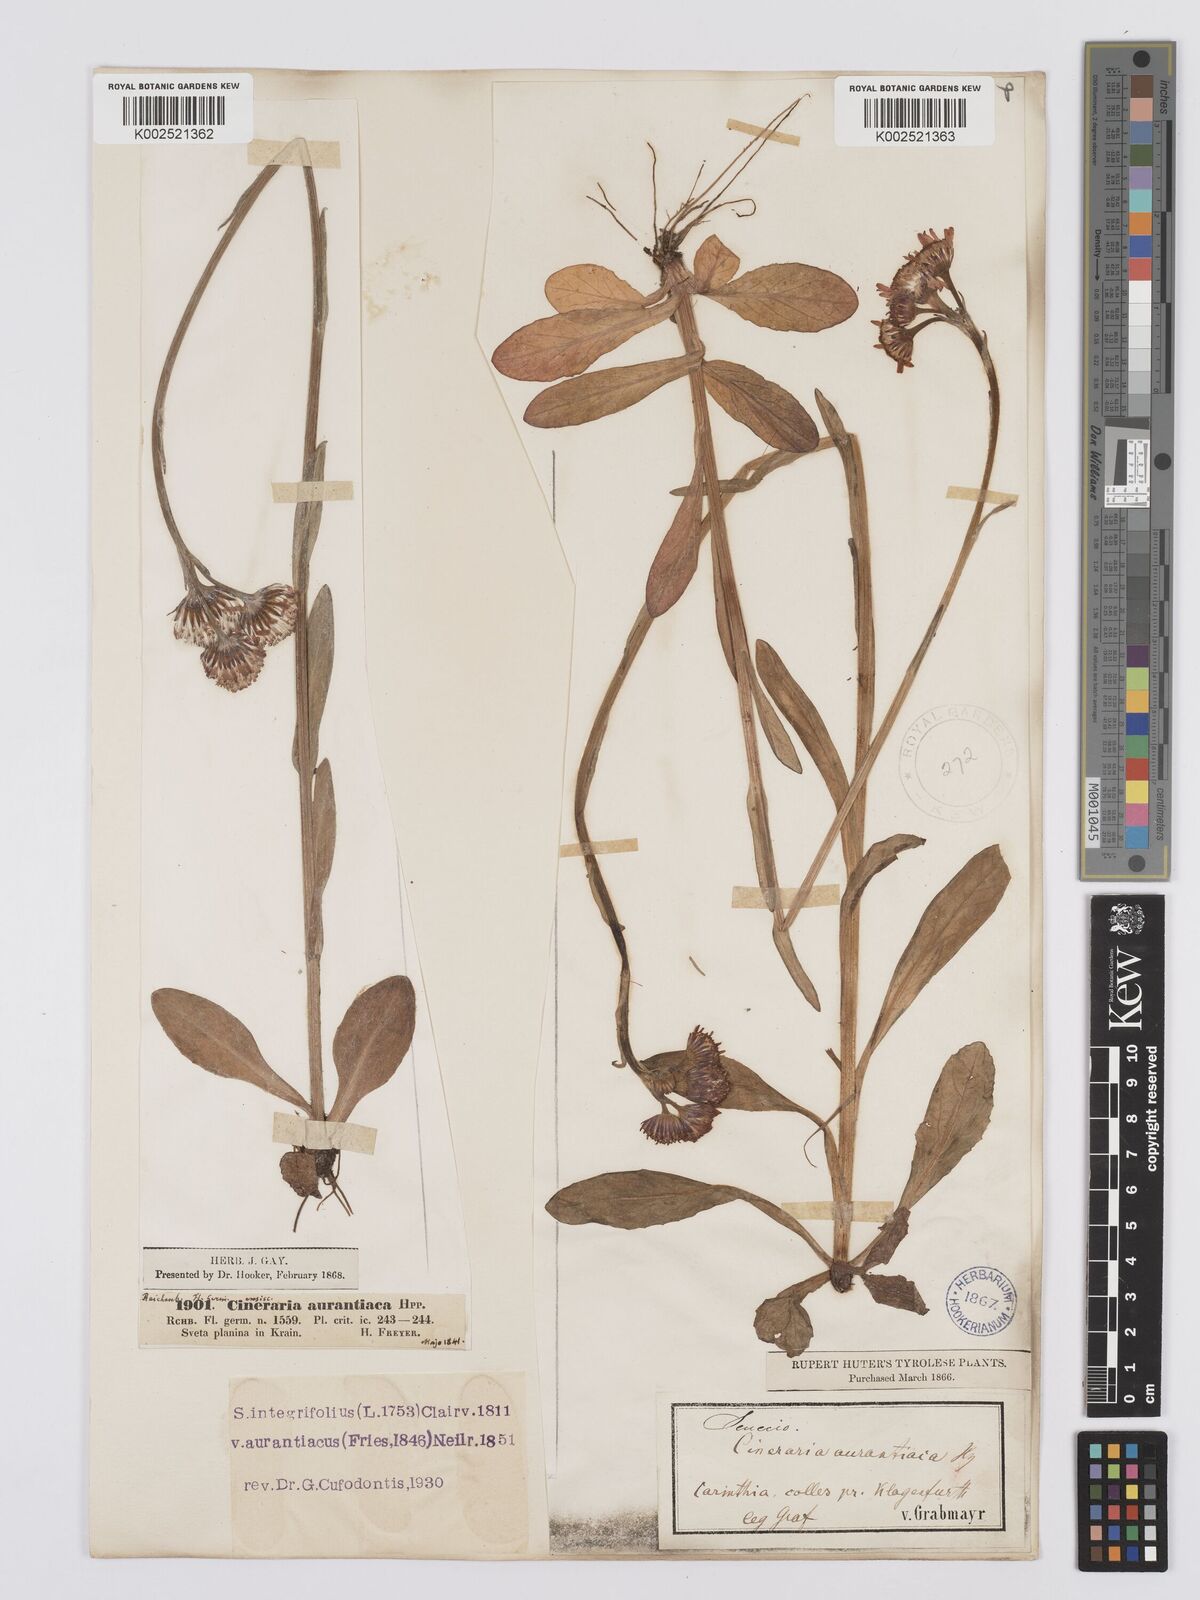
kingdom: Plantae
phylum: Tracheophyta
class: Magnoliopsida
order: Asterales
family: Asteraceae
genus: Tephroseris
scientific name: Tephroseris aurantiaca
